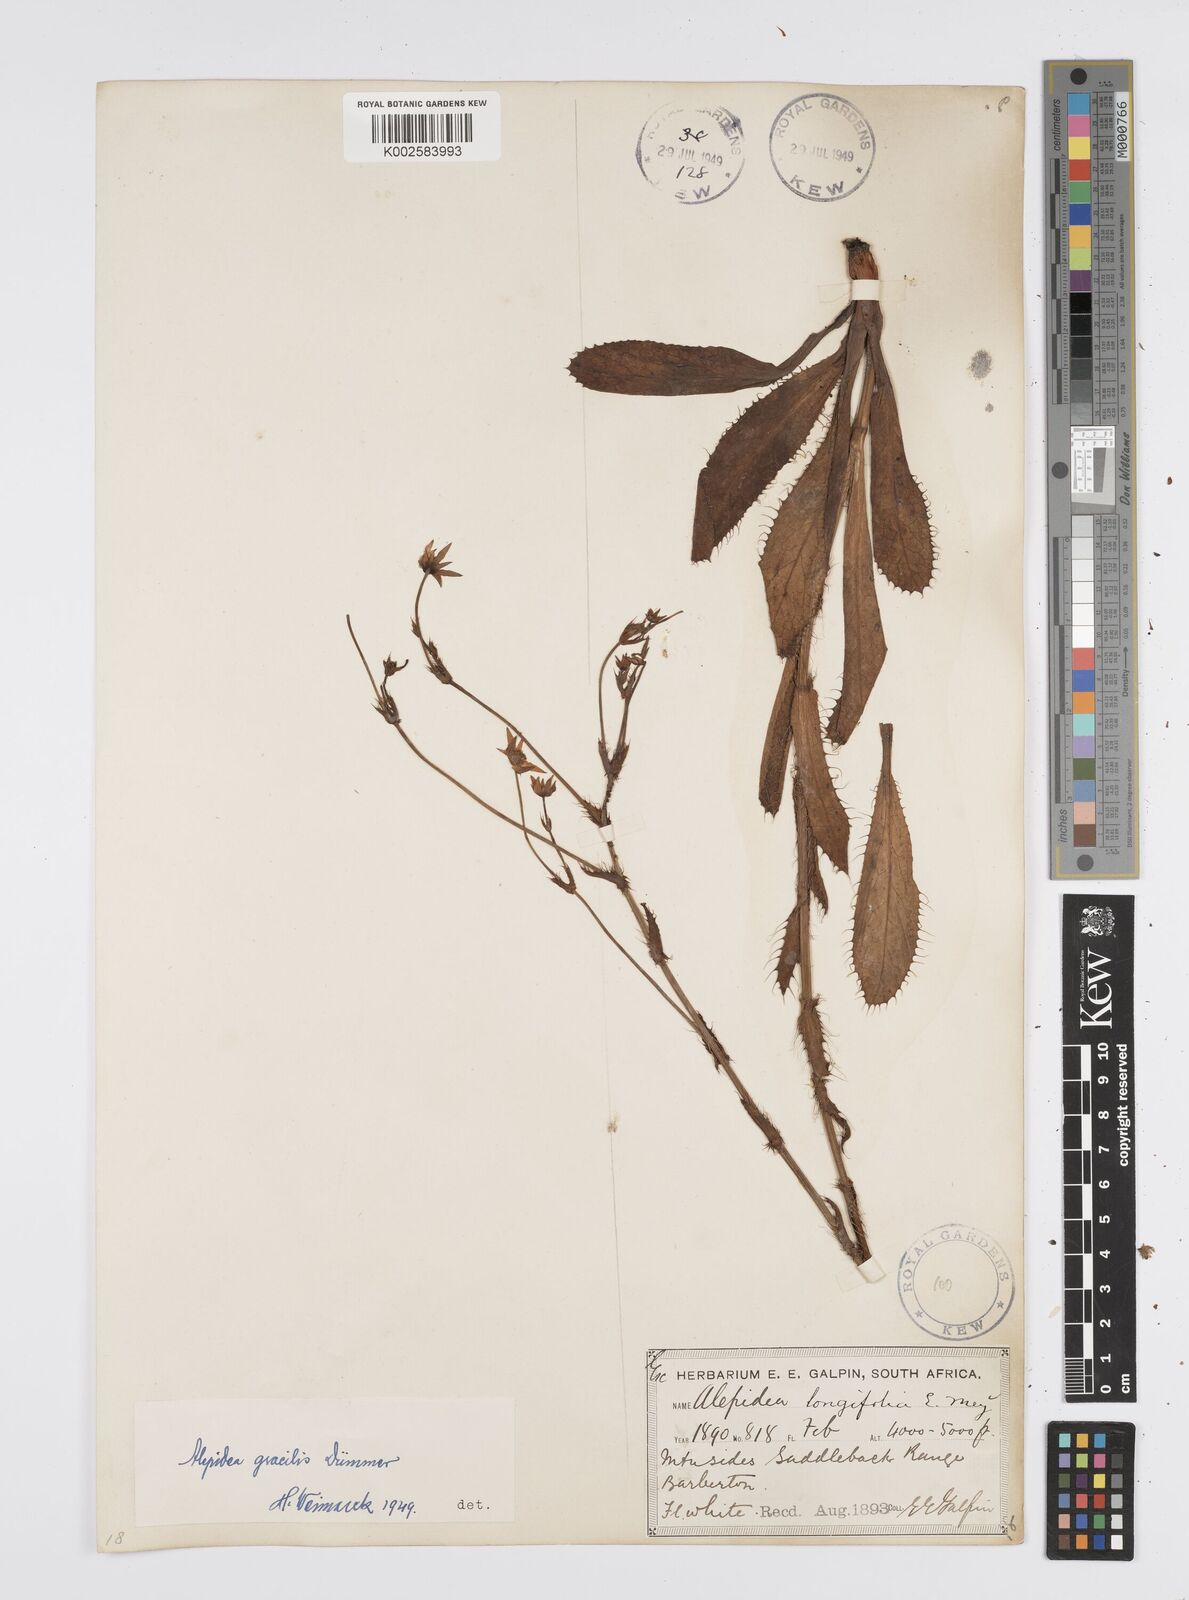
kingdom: Plantae
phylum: Tracheophyta
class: Magnoliopsida
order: Apiales
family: Apiaceae
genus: Alepidea
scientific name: Alepidea
